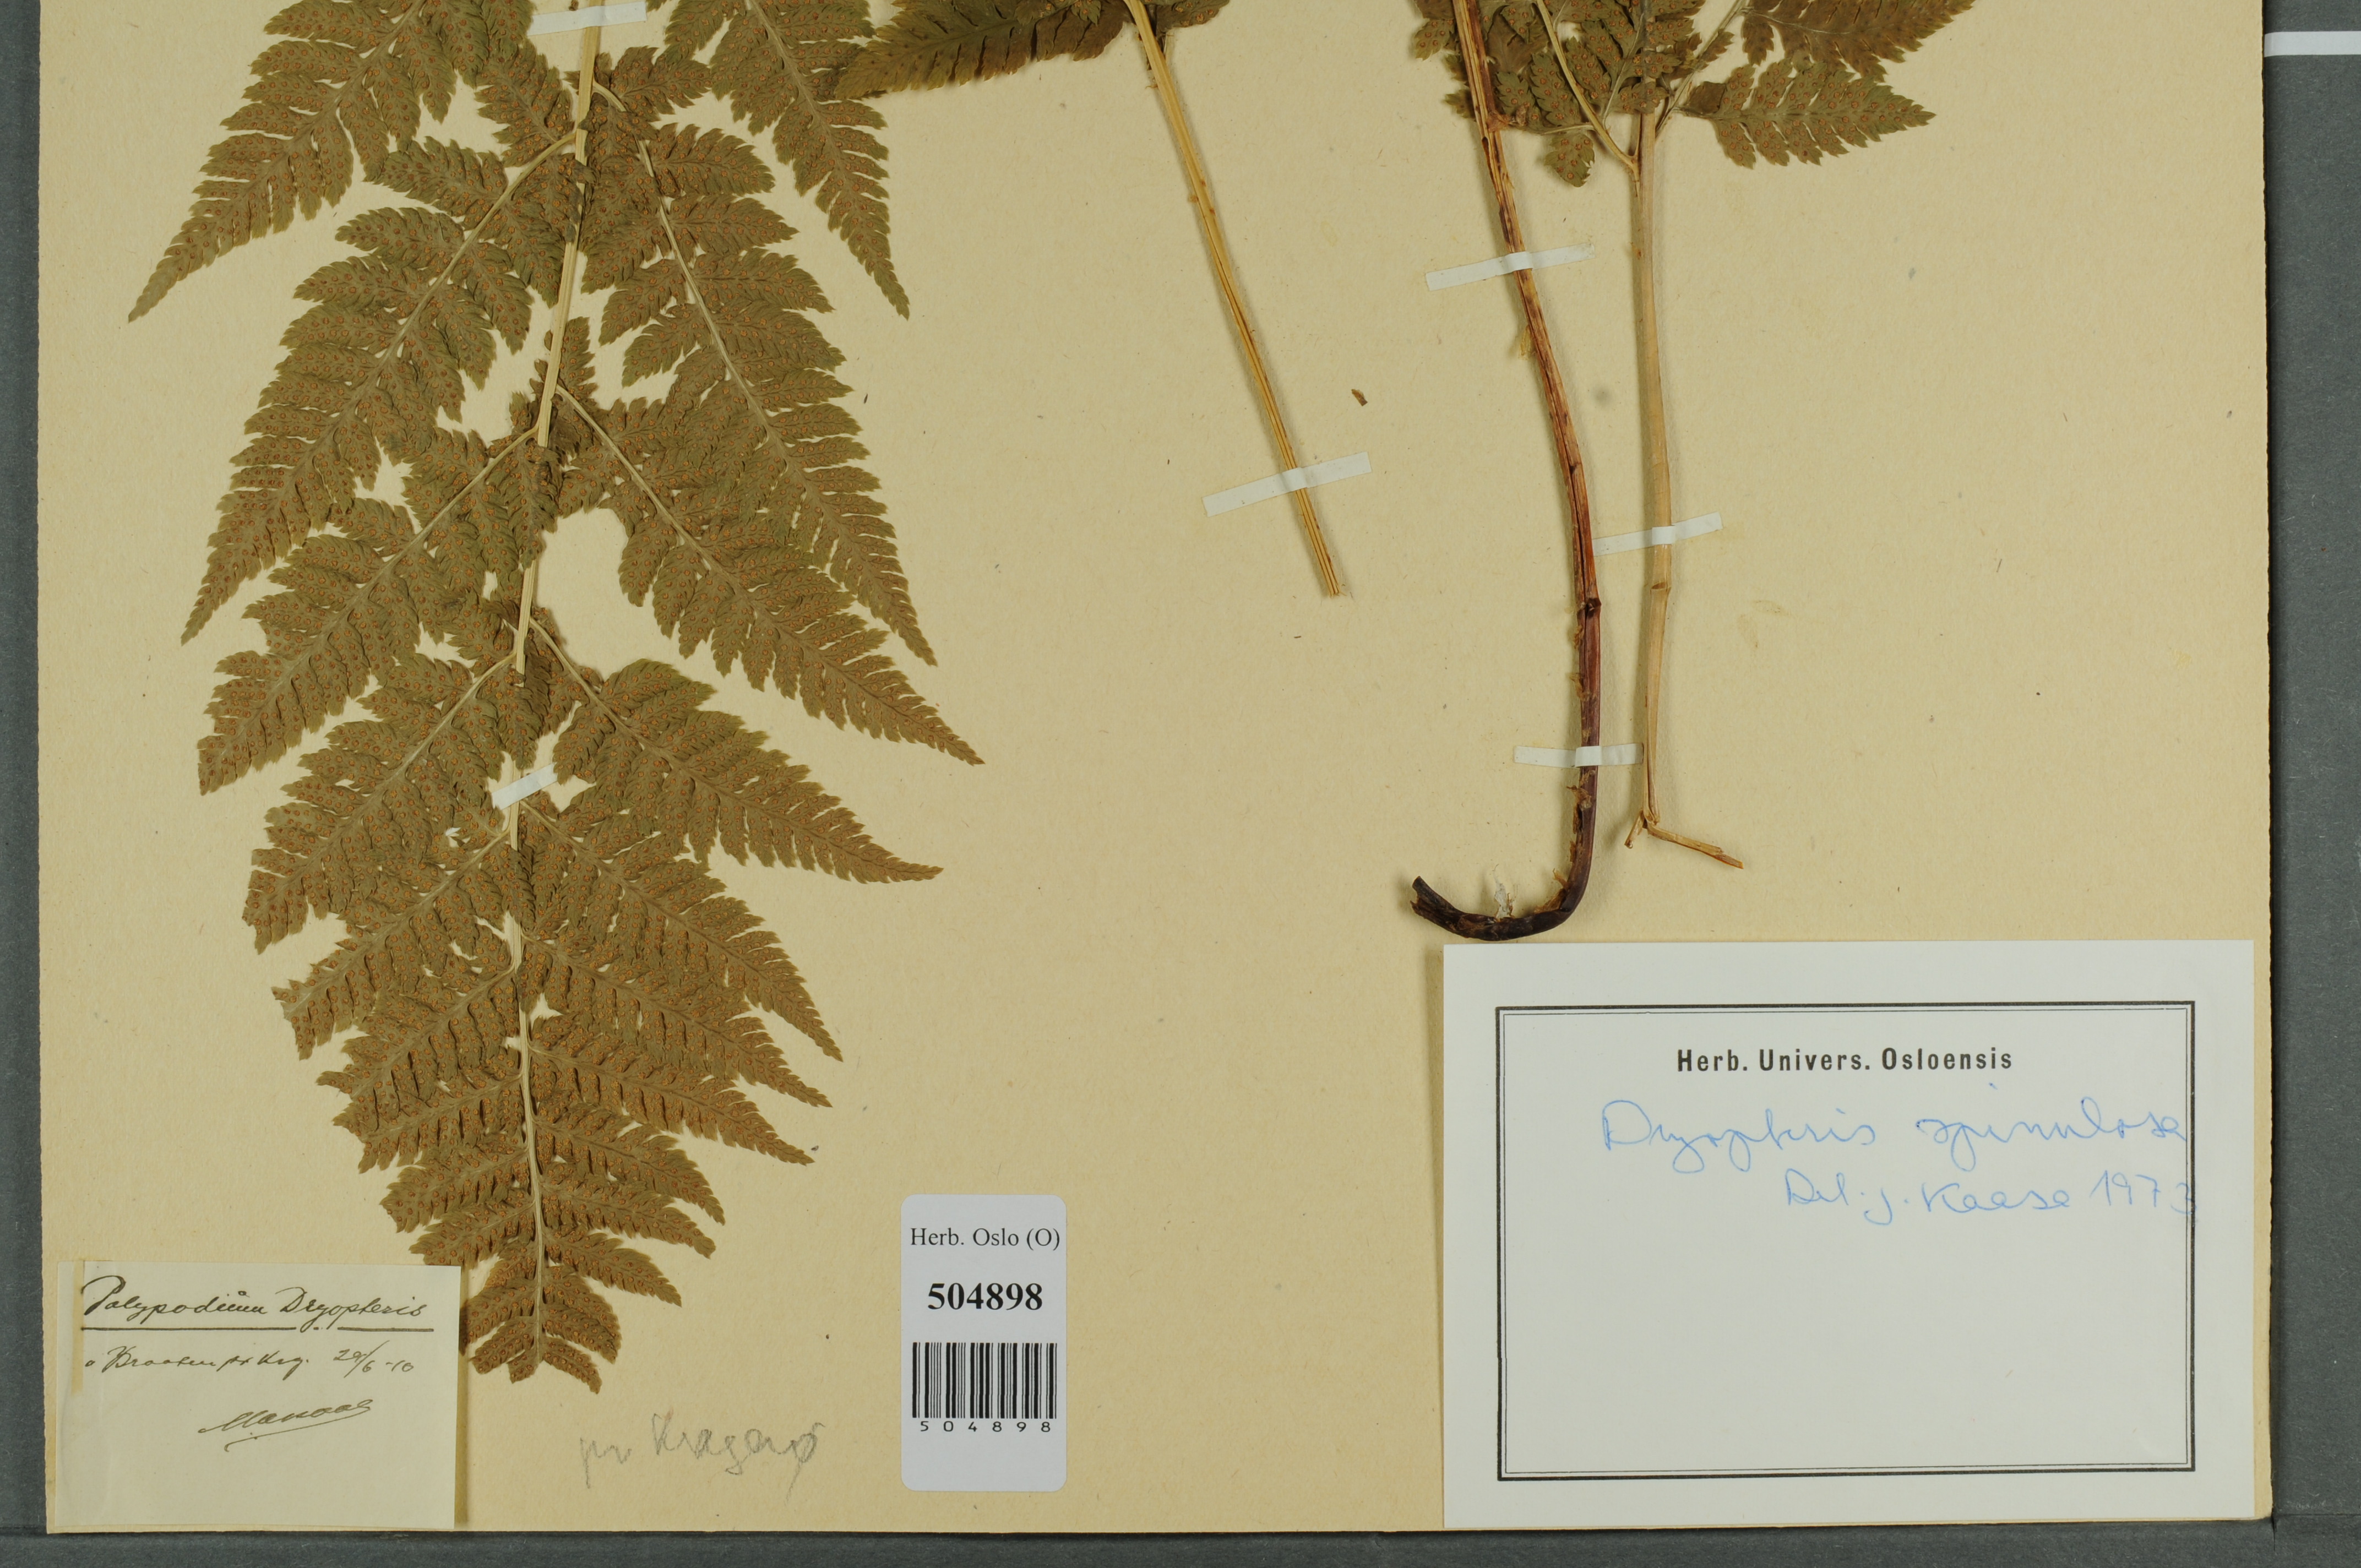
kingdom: Plantae
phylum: Tracheophyta
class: Polypodiopsida
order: Polypodiales
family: Dryopteridaceae
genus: Dryopteris
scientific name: Dryopteris carthusiana
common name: Narrow buckler-fern
